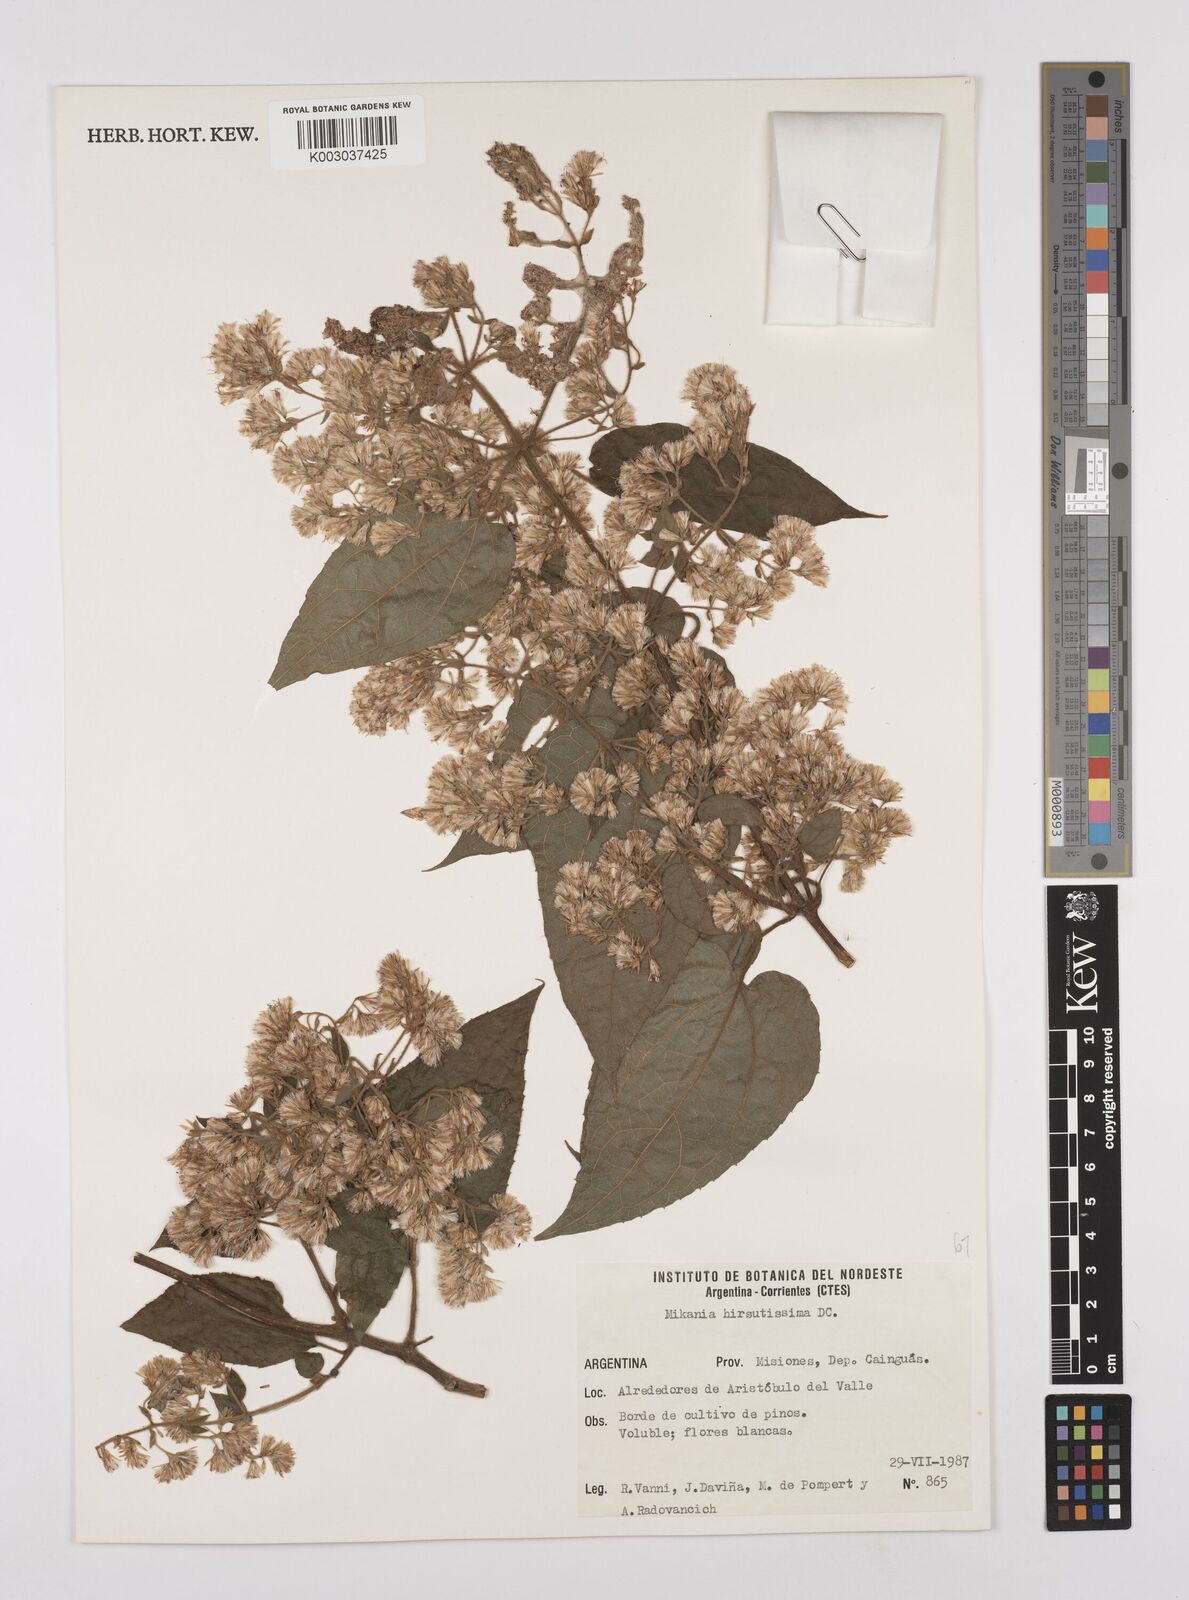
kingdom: Plantae
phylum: Tracheophyta
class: Magnoliopsida
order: Asterales
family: Asteraceae
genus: Mikania
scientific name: Mikania banisteriae
